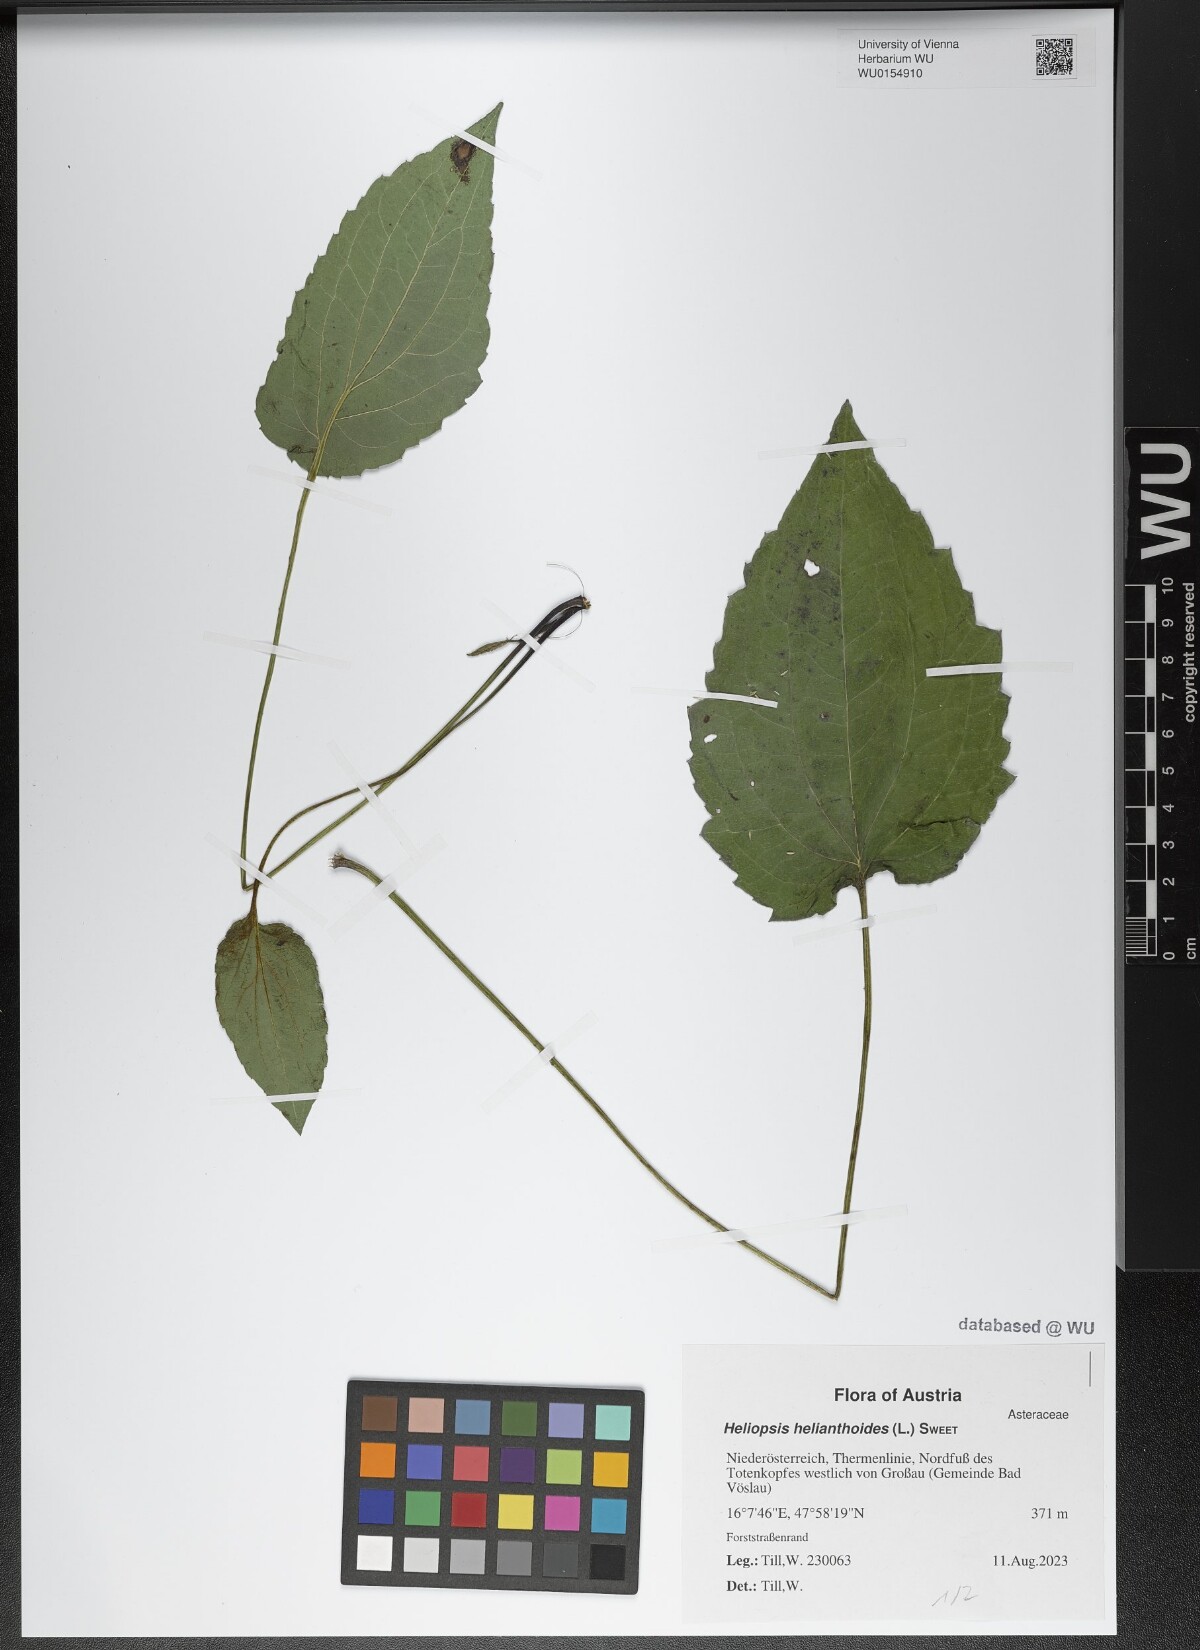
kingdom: Plantae
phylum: Tracheophyta
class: Magnoliopsida
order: Asterales
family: Asteraceae
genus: Heliopsis
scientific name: Heliopsis helianthoides
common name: False sunflower
